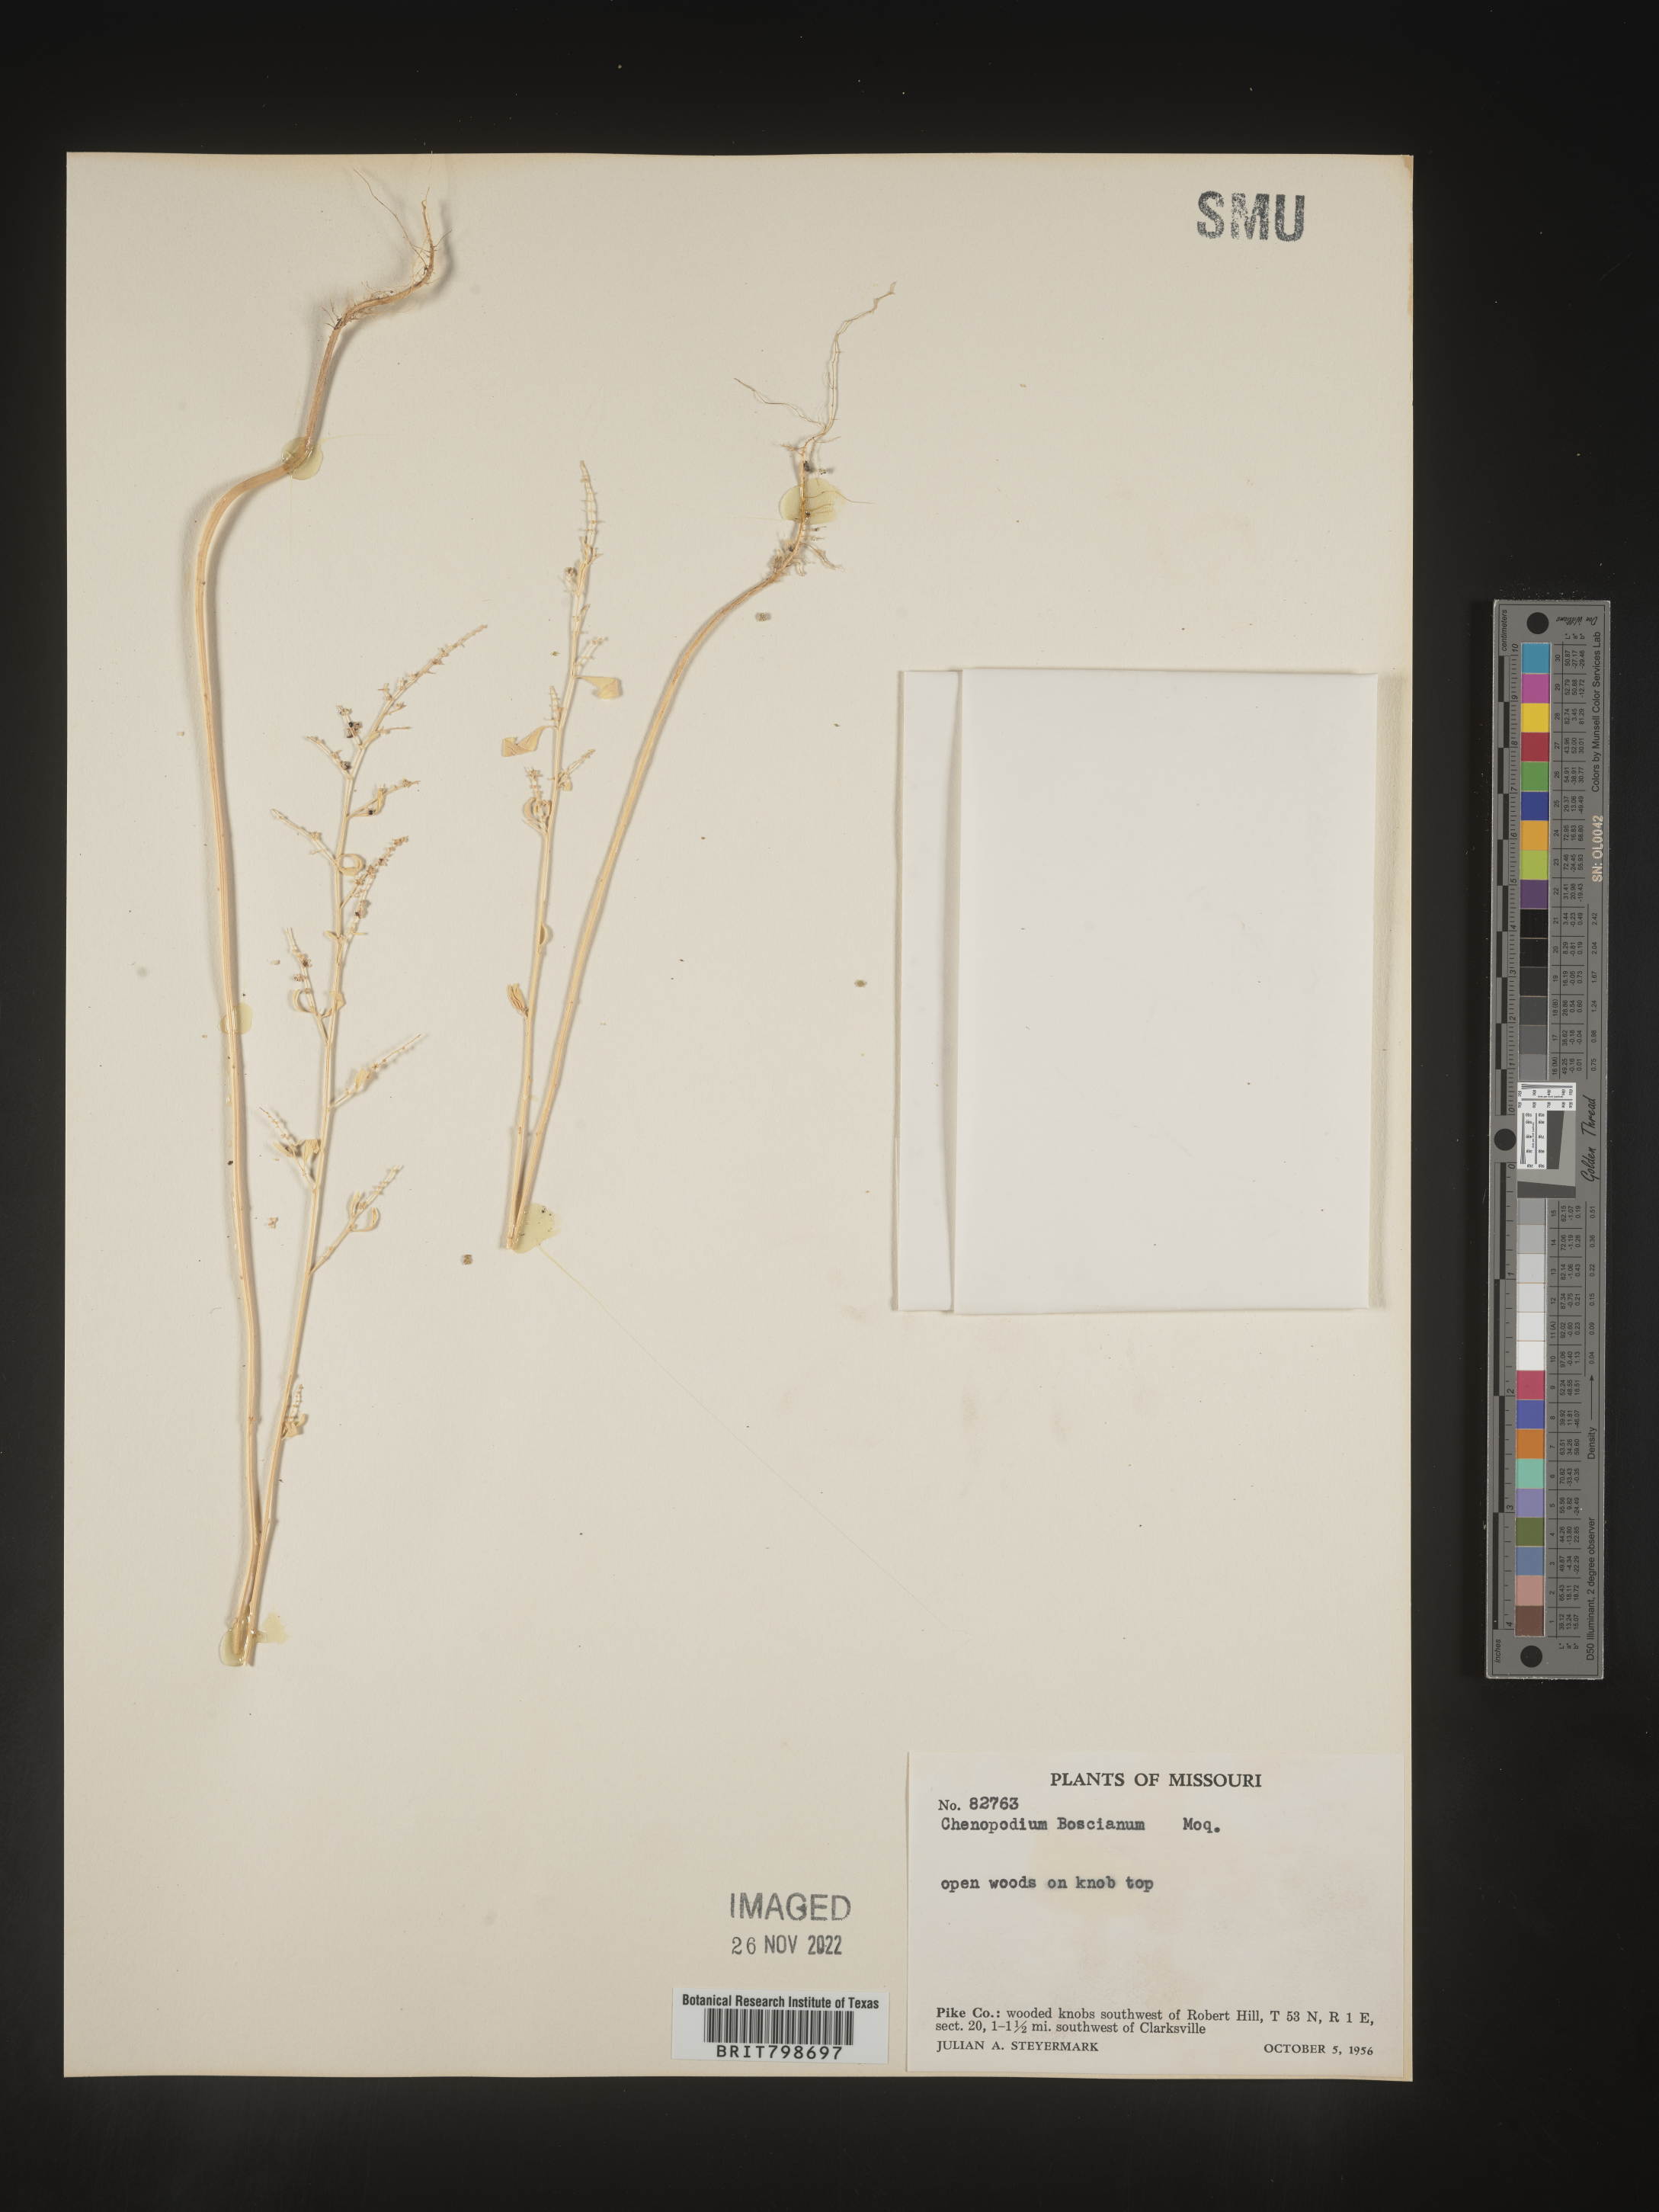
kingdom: Plantae
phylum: Tracheophyta
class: Magnoliopsida
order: Caryophyllales
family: Amaranthaceae
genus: Chenopodium
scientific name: Chenopodium berlandieri
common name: Pit-seed goosefoot
